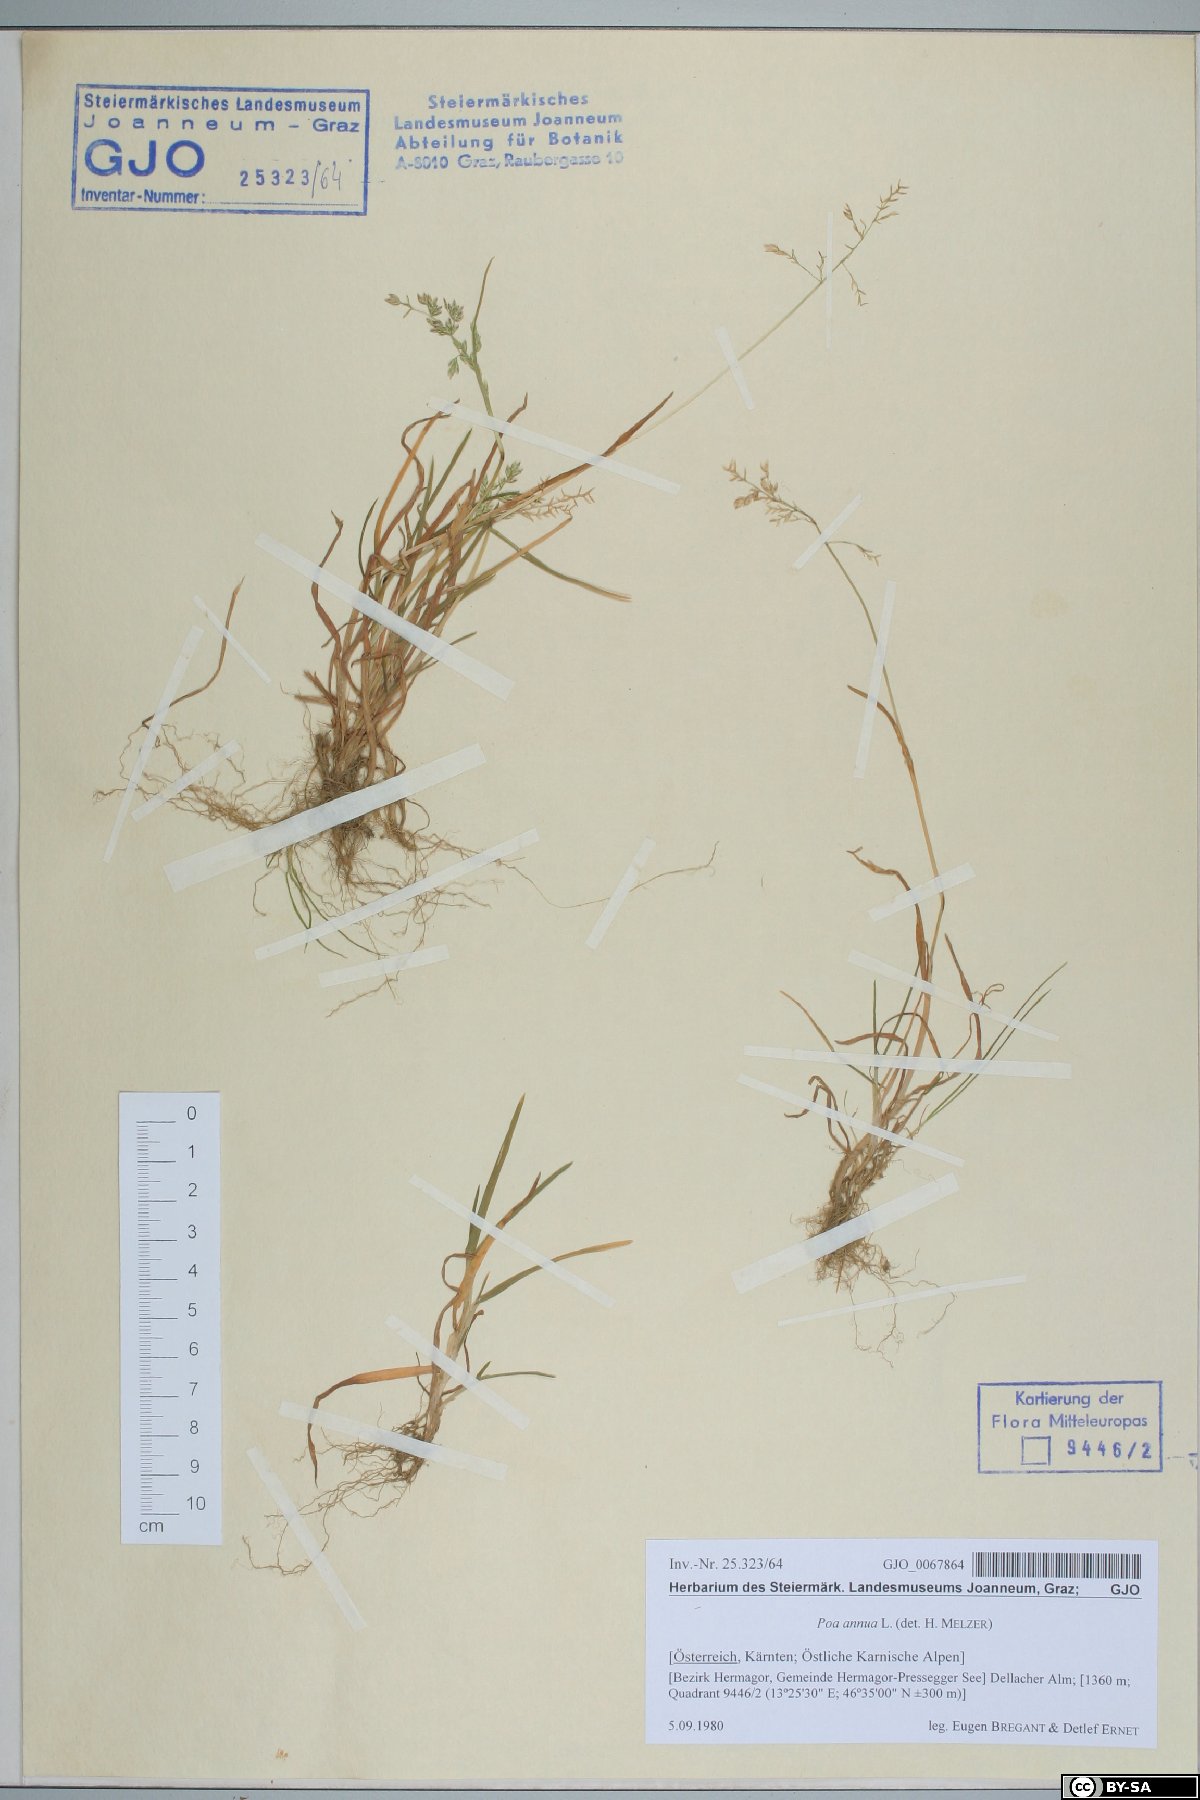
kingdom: Plantae
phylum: Tracheophyta
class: Liliopsida
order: Poales
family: Poaceae
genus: Poa
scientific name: Poa annua
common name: Annual bluegrass
